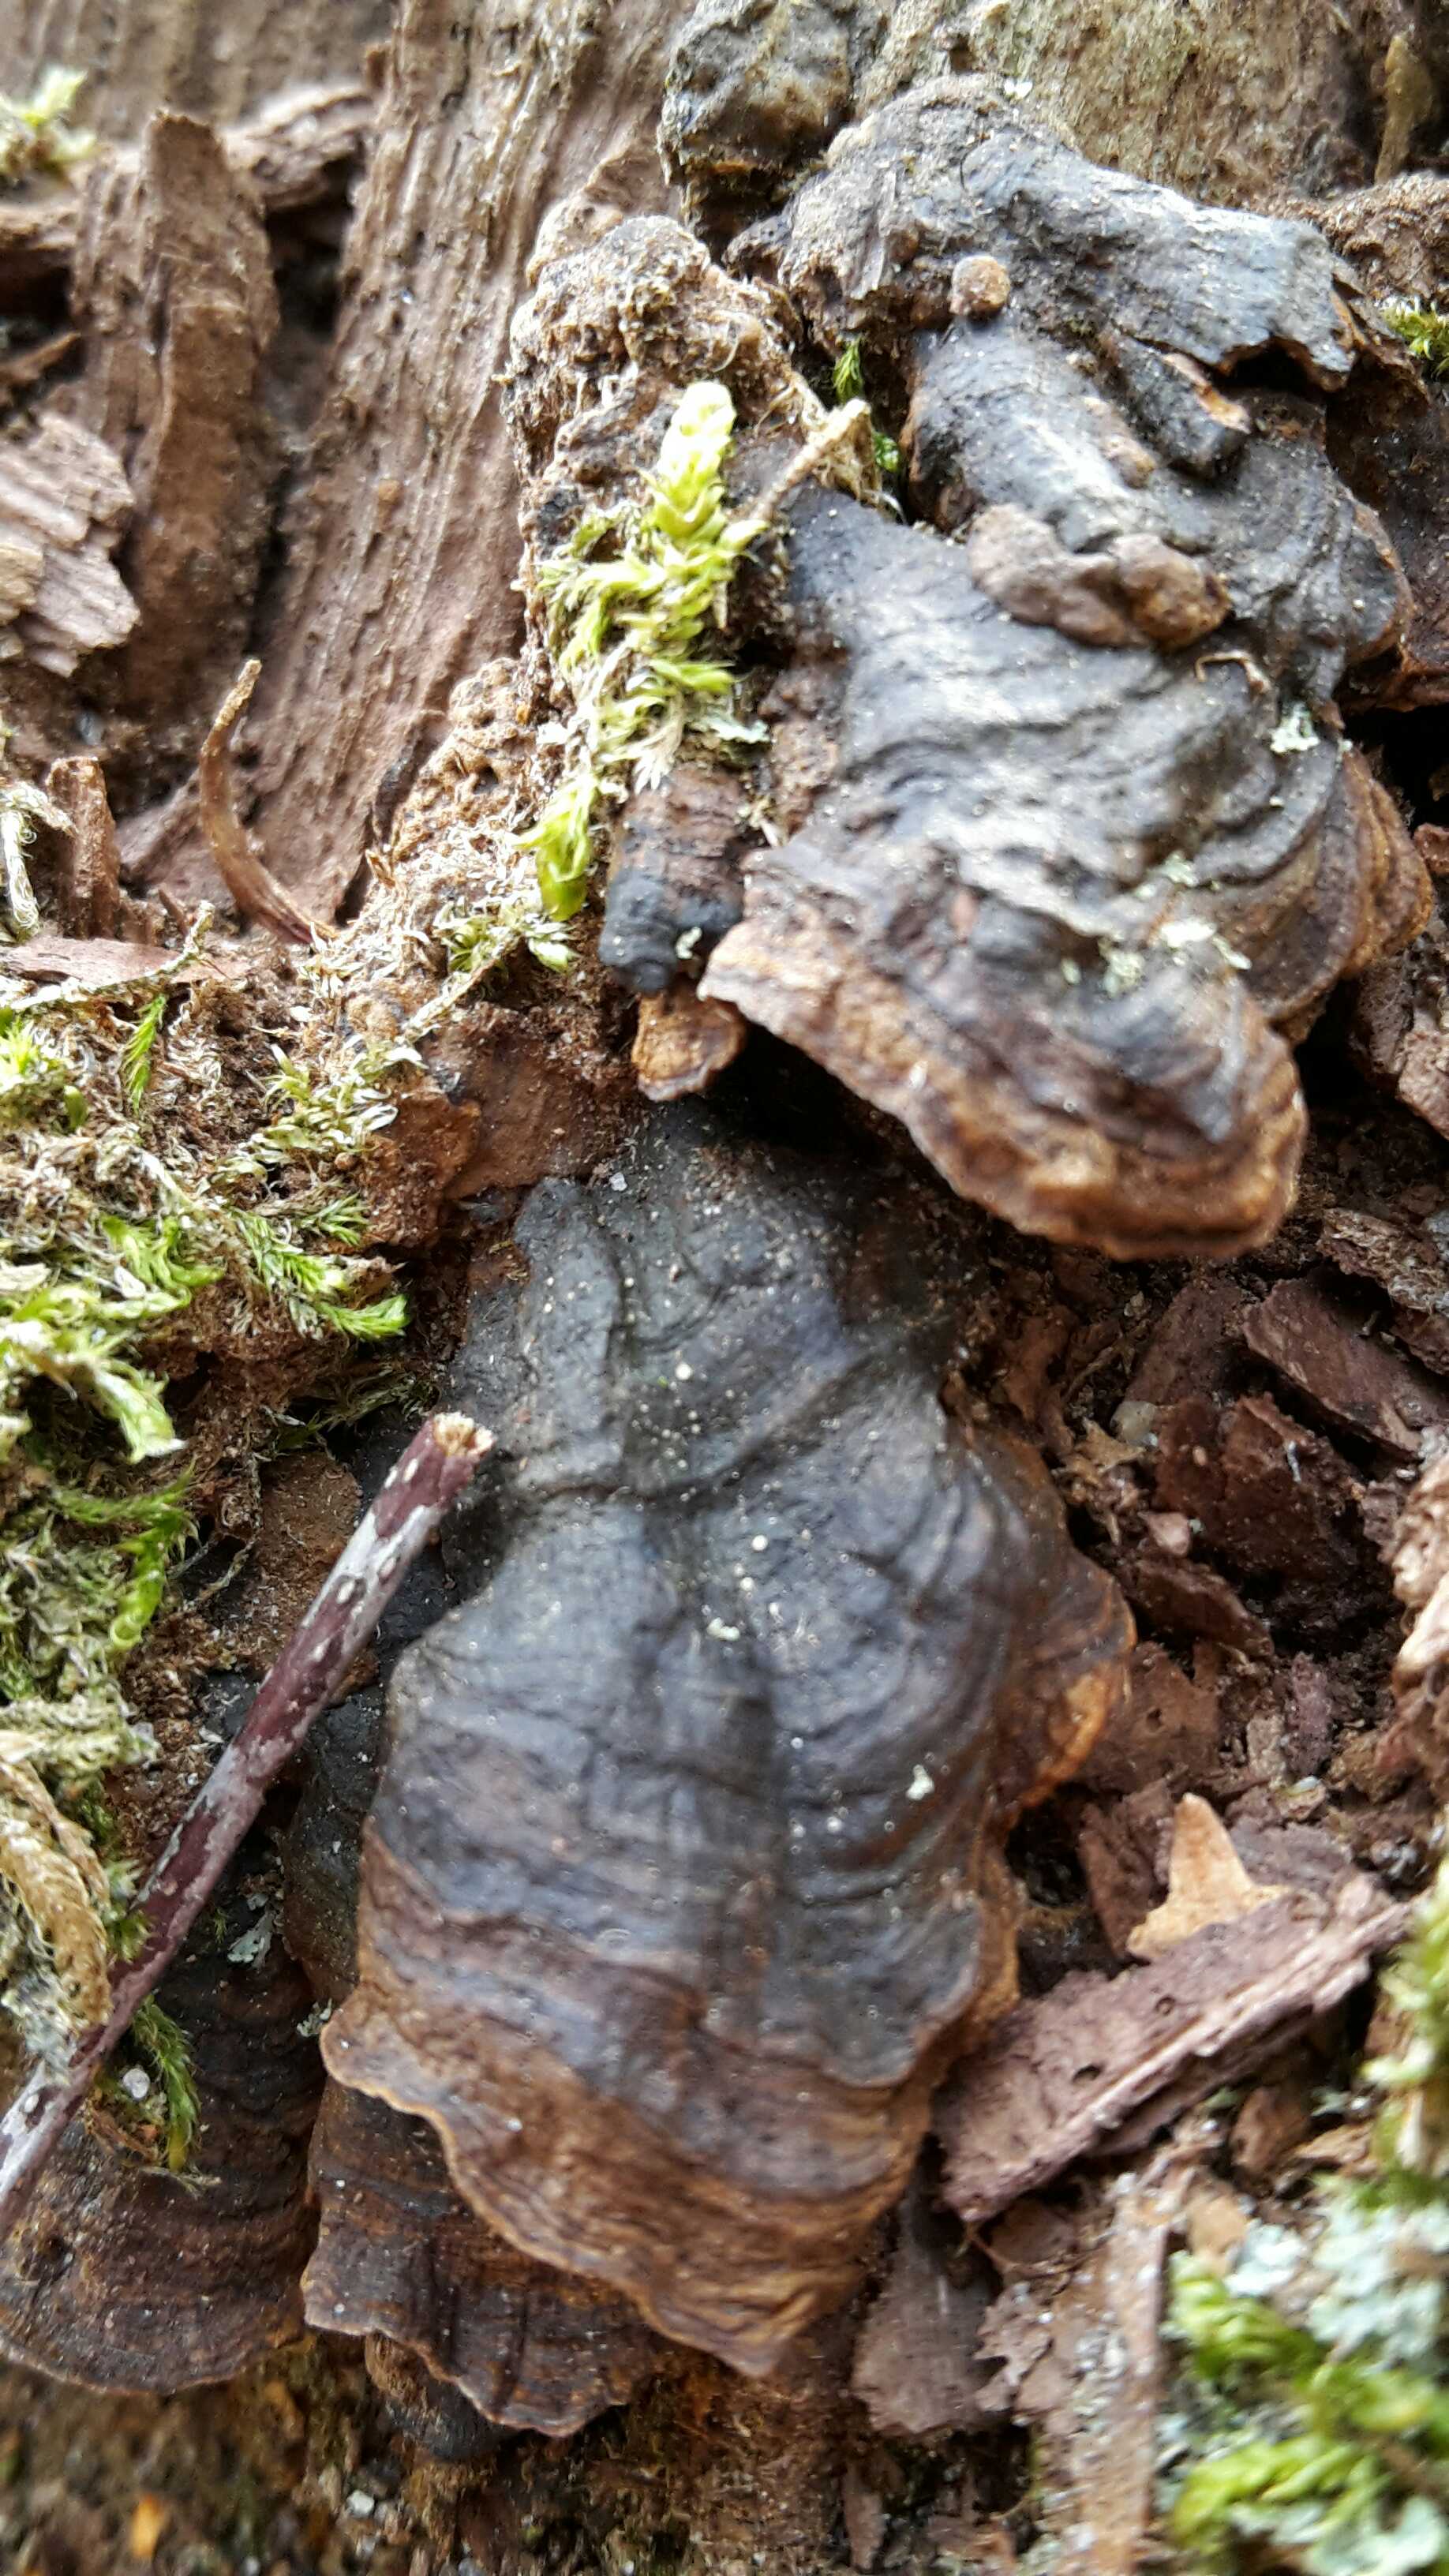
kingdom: Fungi
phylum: Basidiomycota
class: Agaricomycetes
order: Hymenochaetales
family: Hymenochaetaceae
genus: Hymenochaete
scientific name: Hymenochaete rubiginosa
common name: stiv ruslædersvamp
